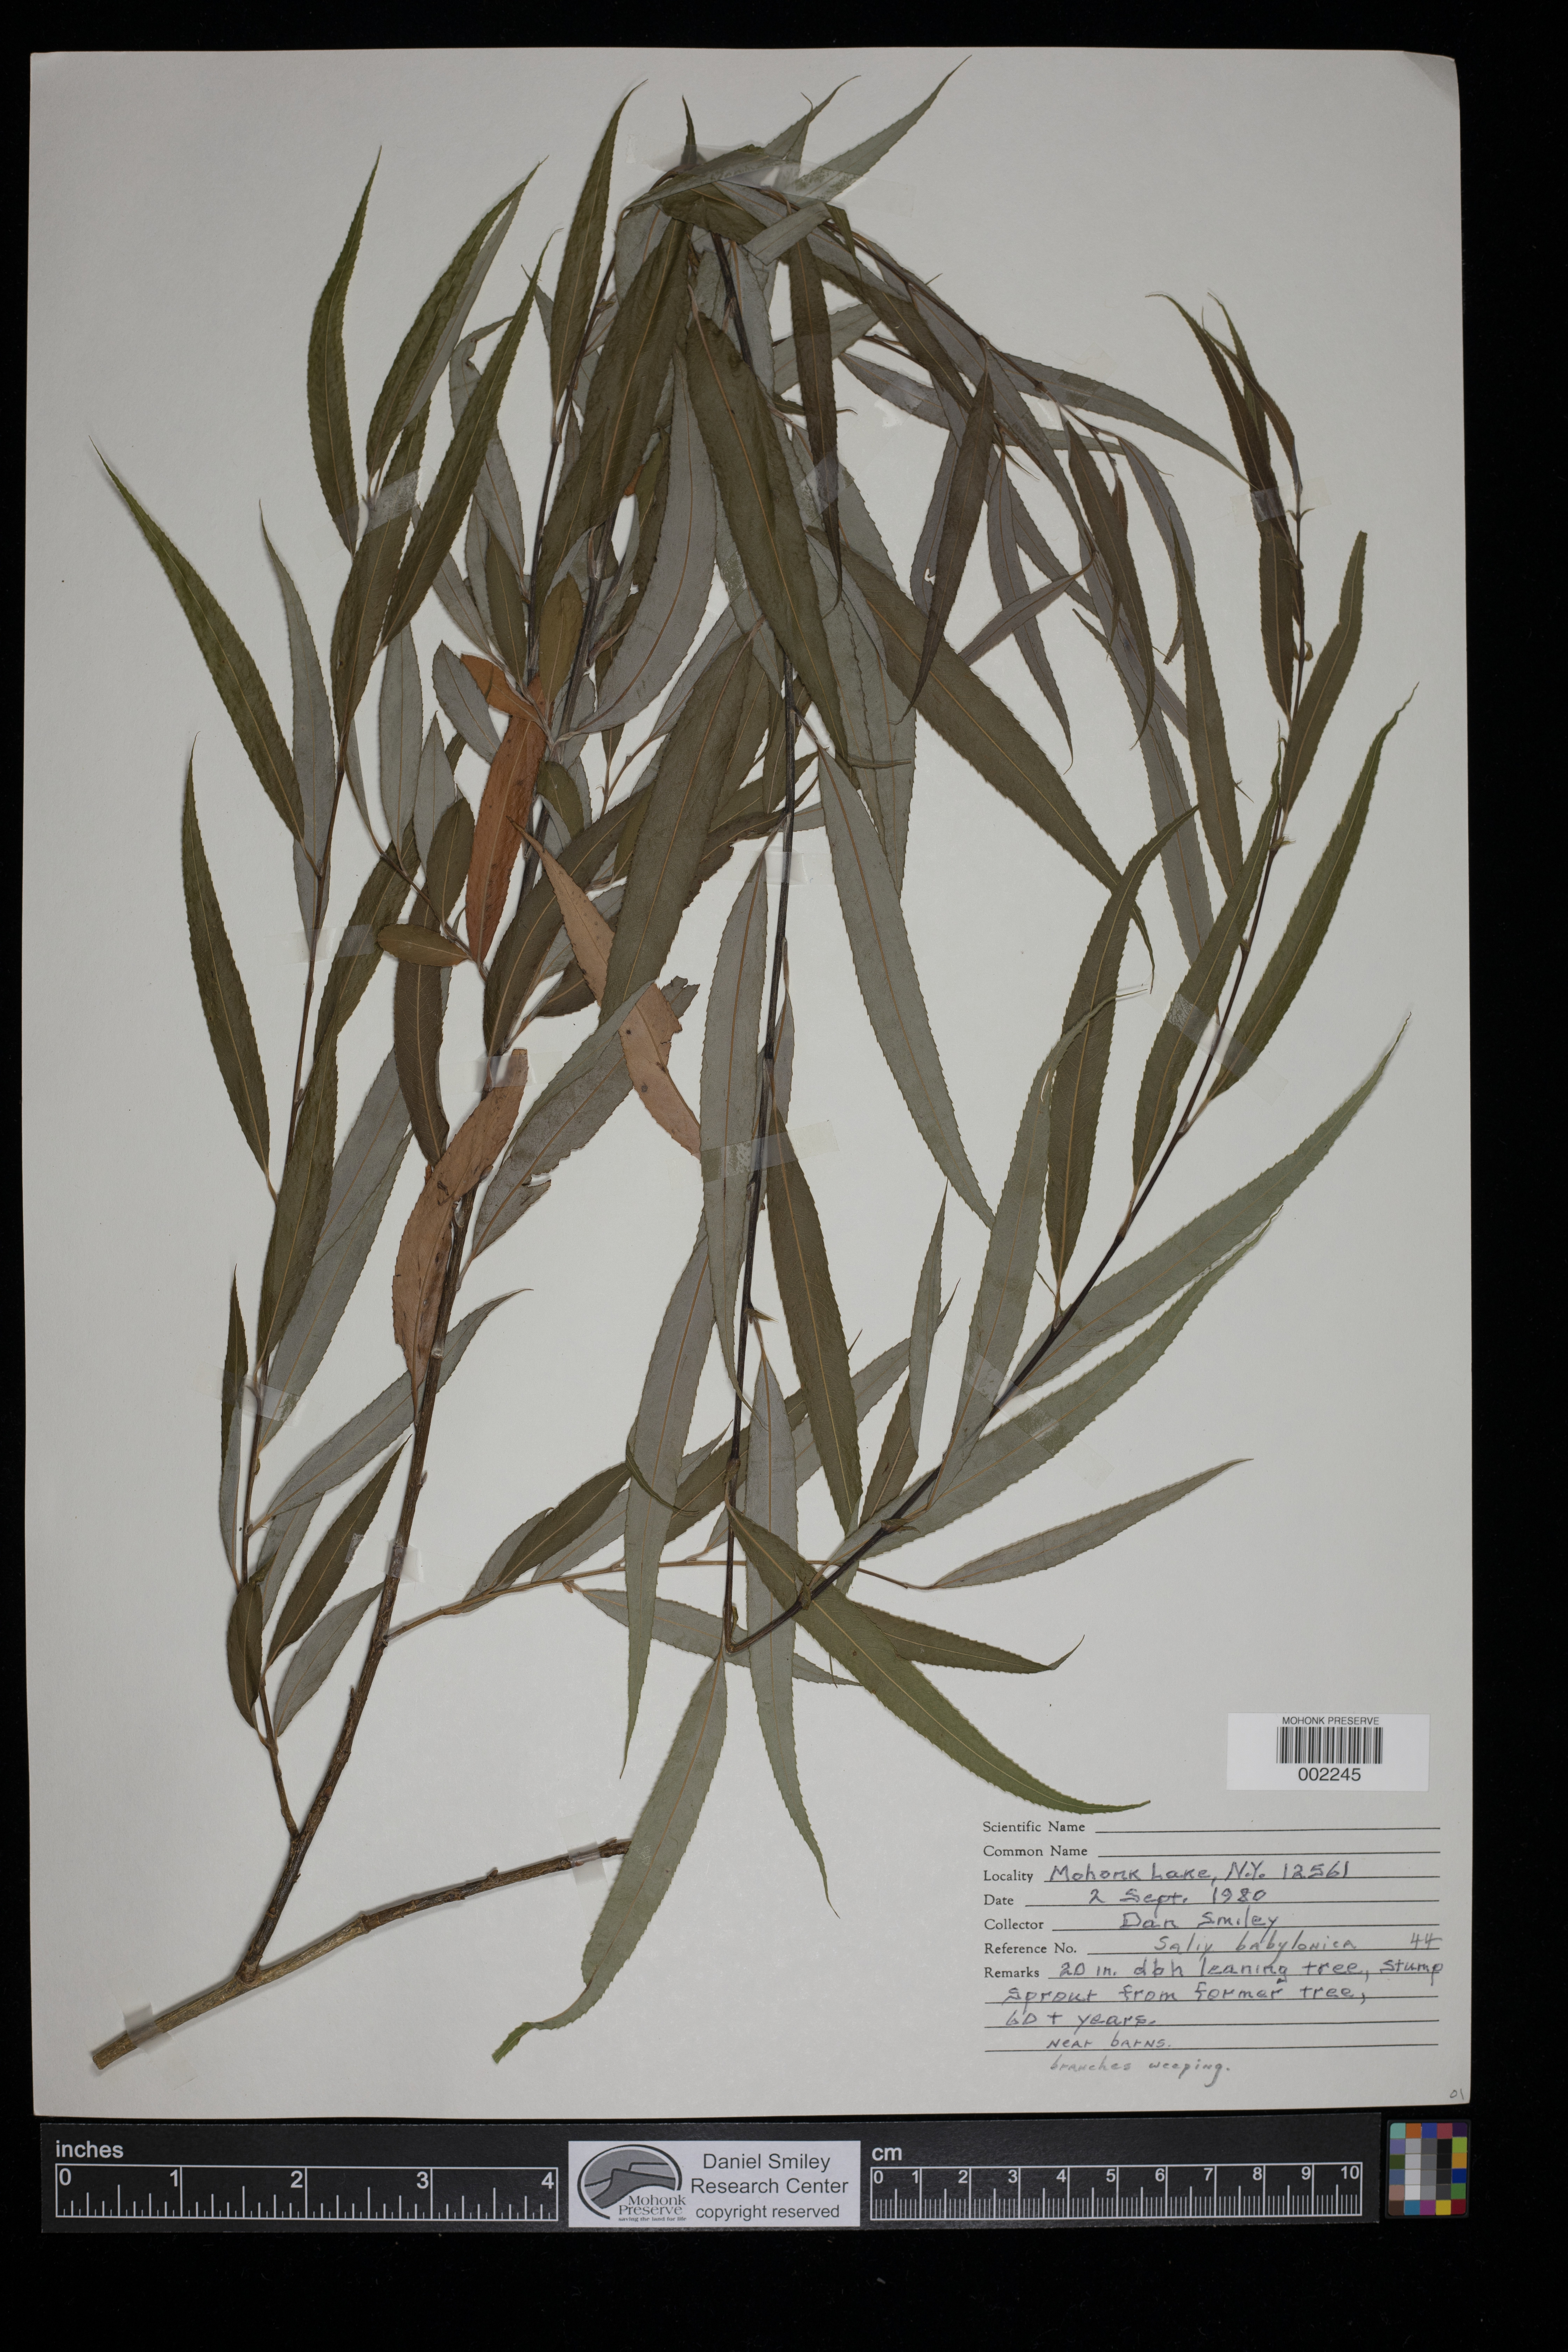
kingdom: Plantae
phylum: Tracheophyta
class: Magnoliopsida
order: Malpighiales
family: Salicaceae
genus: Salix
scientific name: Salix babylonica
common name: Weeping willow
